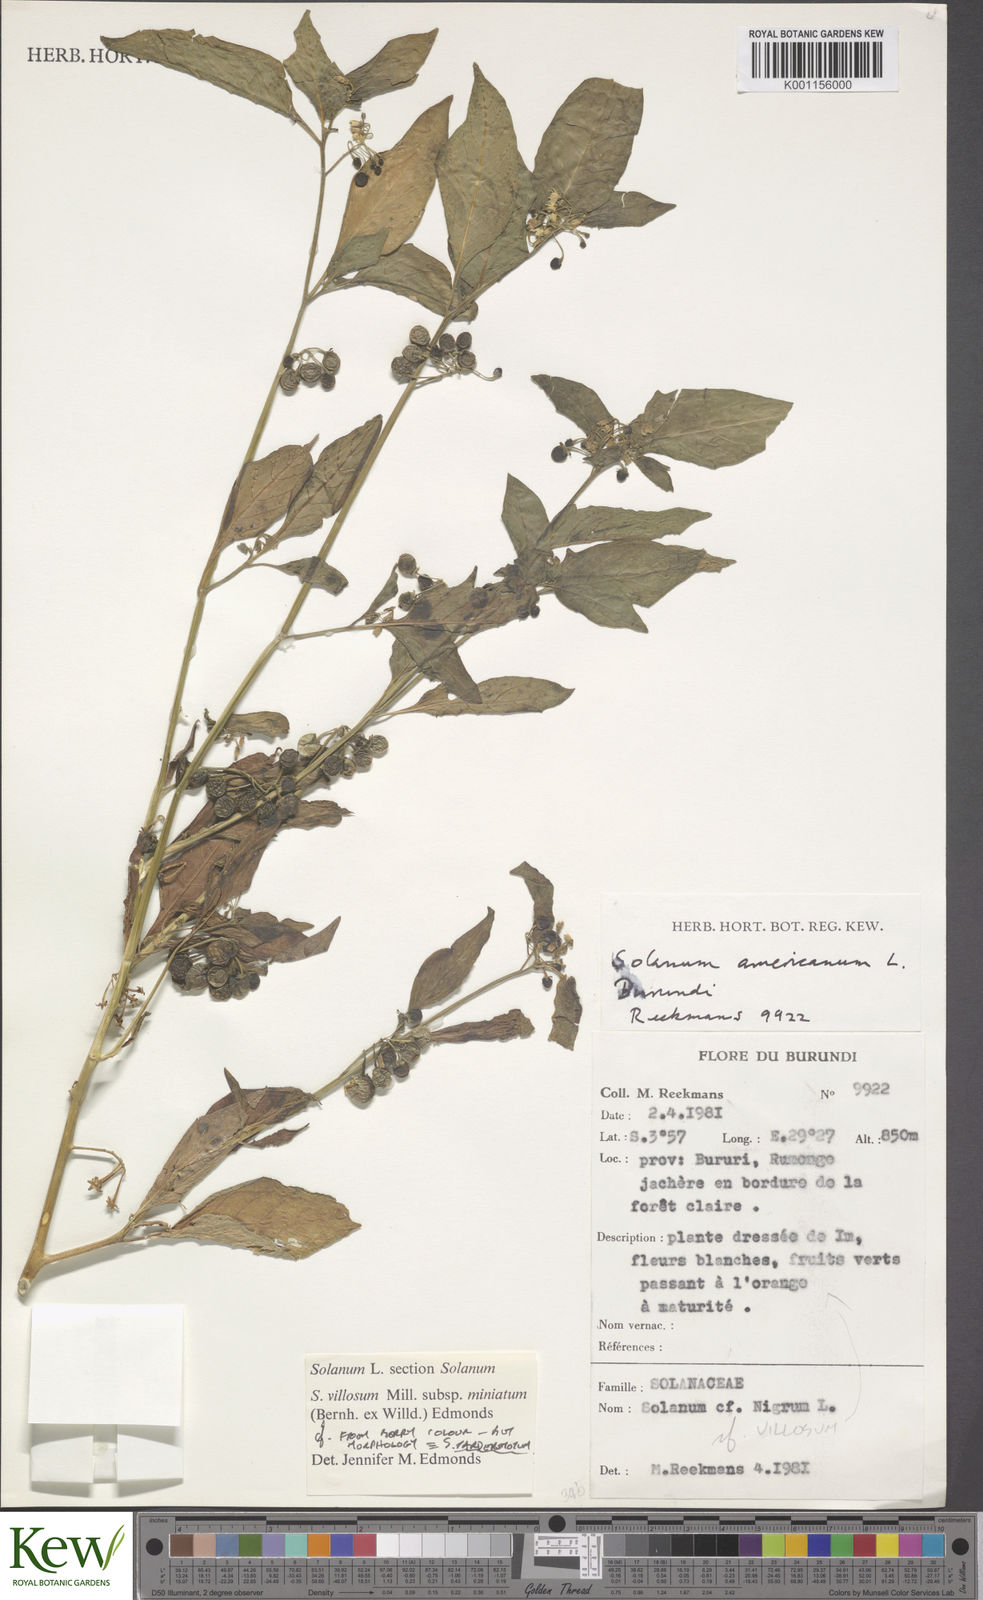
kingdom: Plantae
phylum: Tracheophyta
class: Magnoliopsida
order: Solanales
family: Solanaceae
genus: Solanum
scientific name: Solanum villosum
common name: Red nightshade
